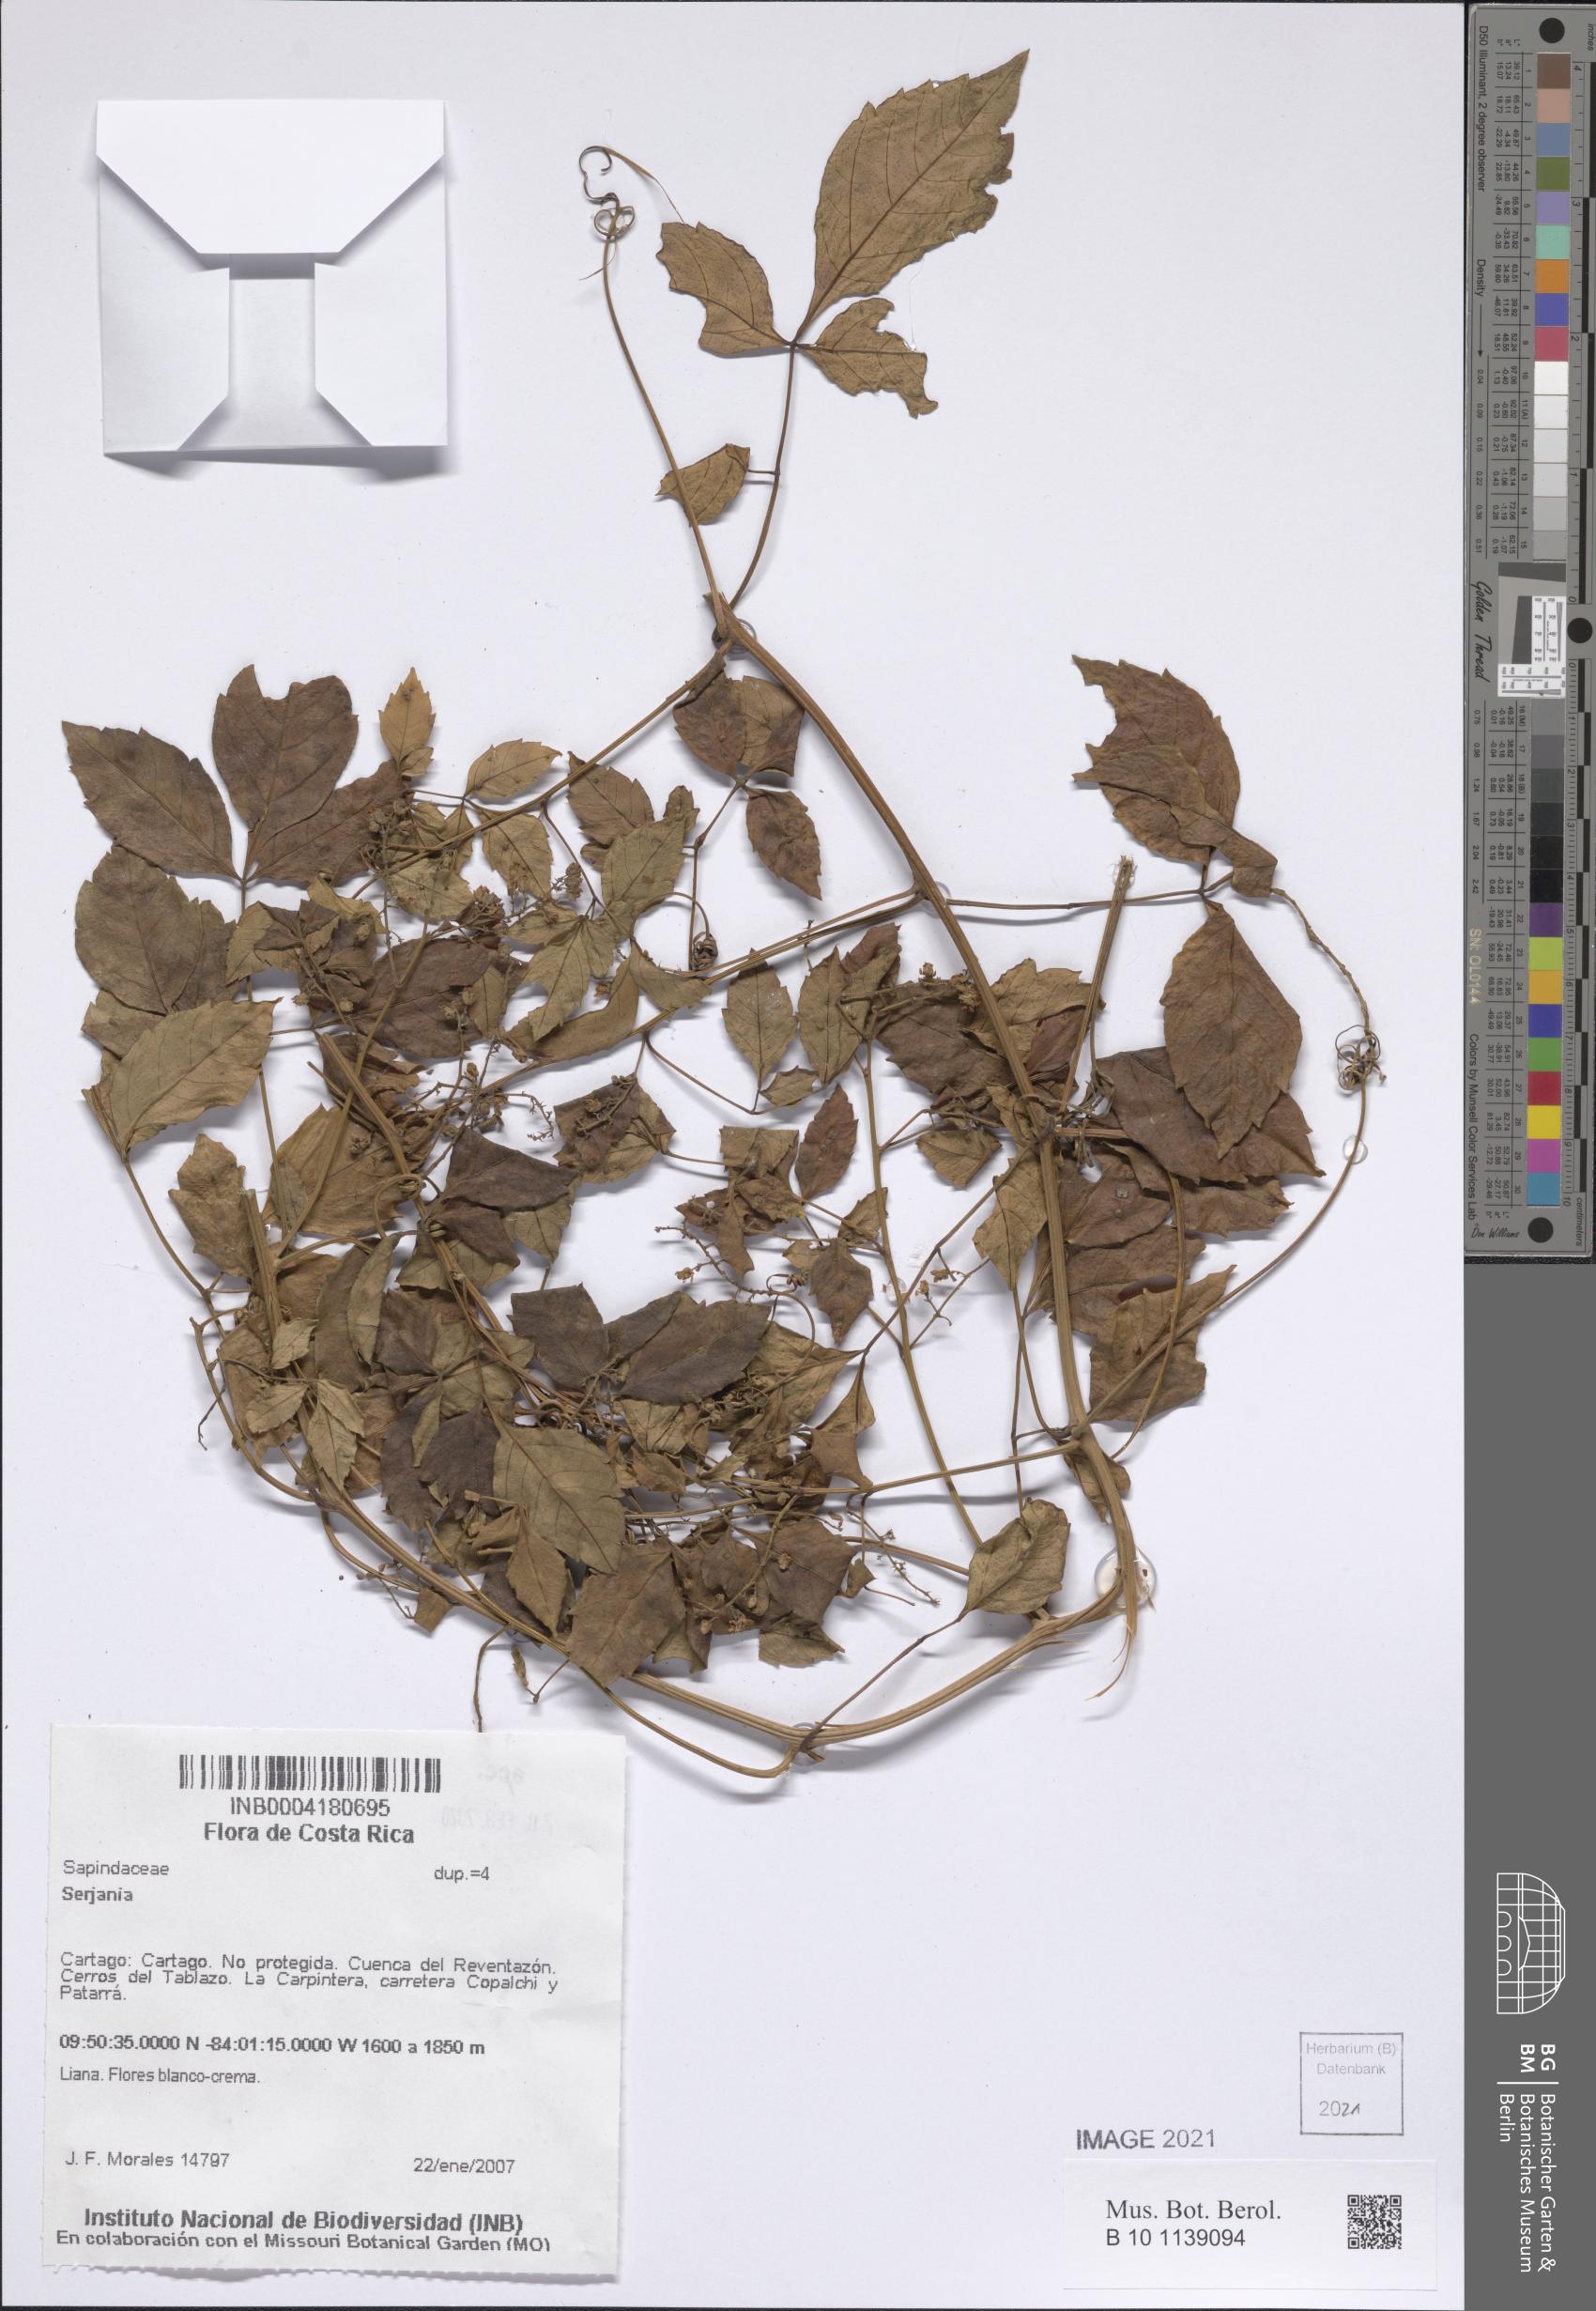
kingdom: Plantae
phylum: Tracheophyta
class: Magnoliopsida
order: Sapindales
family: Sapindaceae
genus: Serjania
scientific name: Serjania
